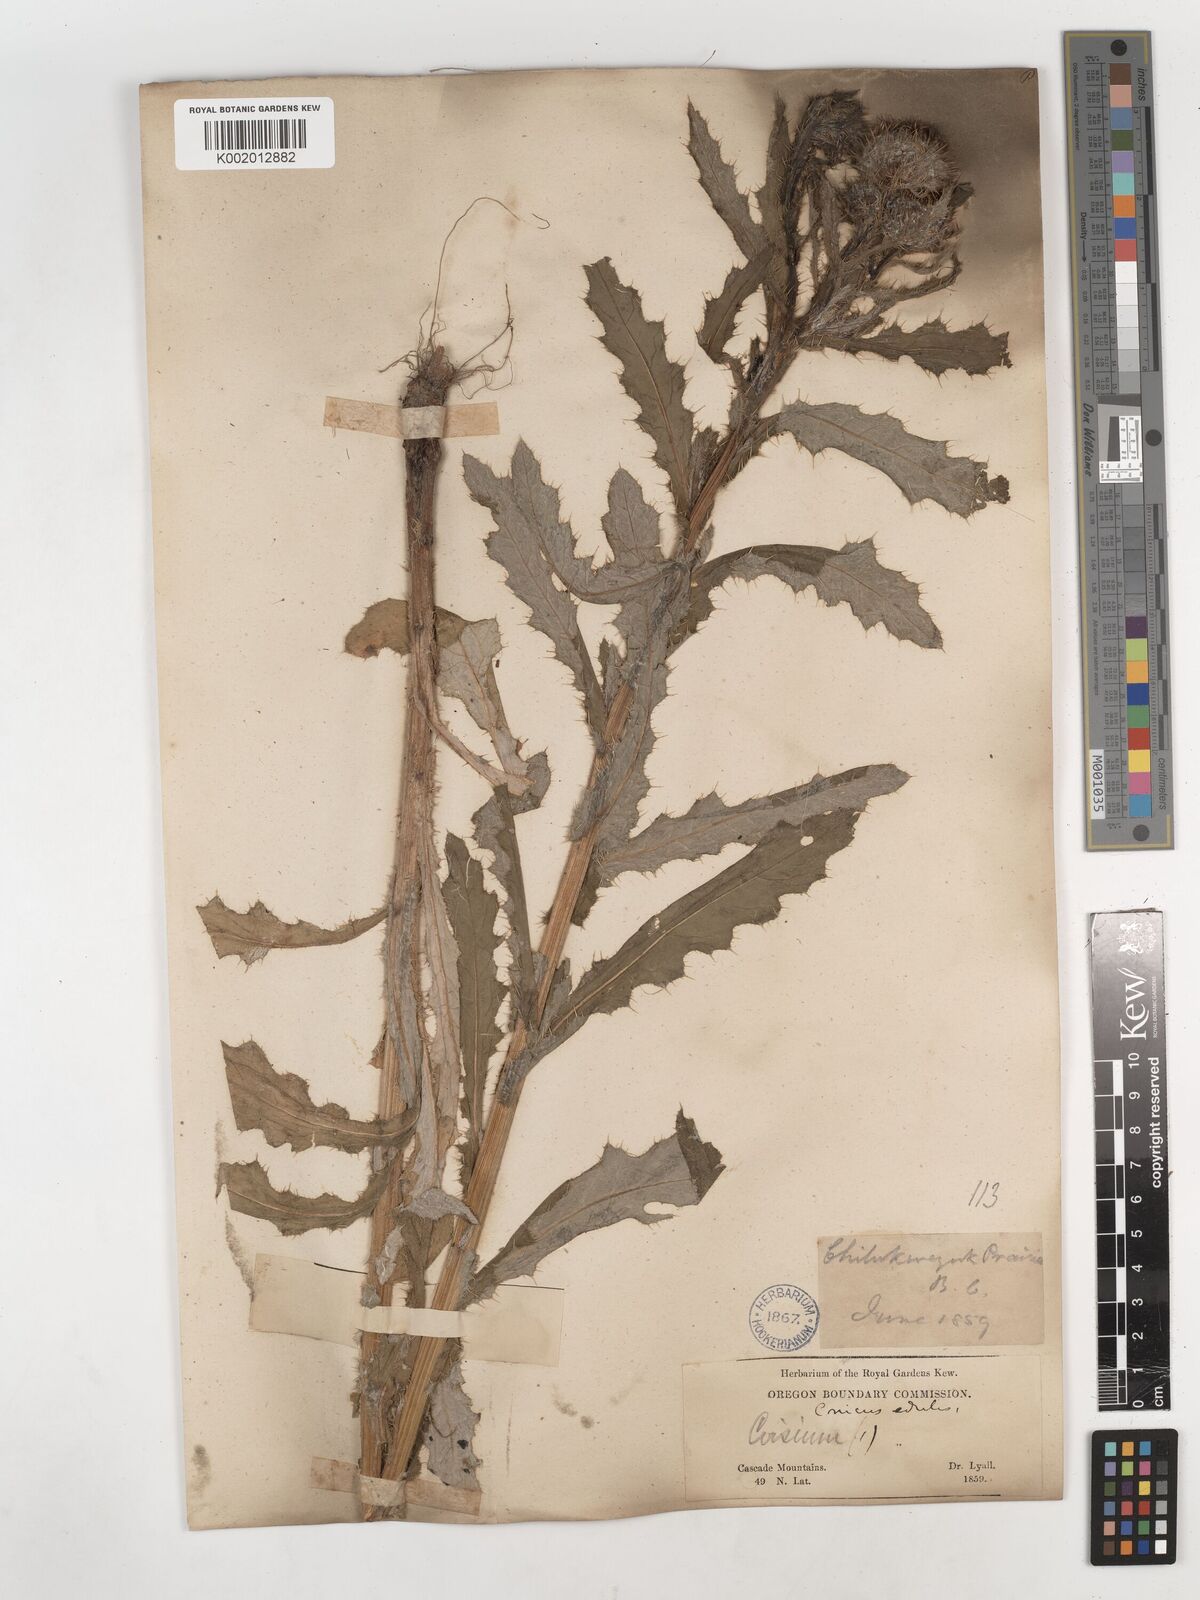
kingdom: Plantae
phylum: Tracheophyta
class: Magnoliopsida
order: Asterales
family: Asteraceae
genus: Cirsium
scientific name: Cirsium edule
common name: Indian thistle
